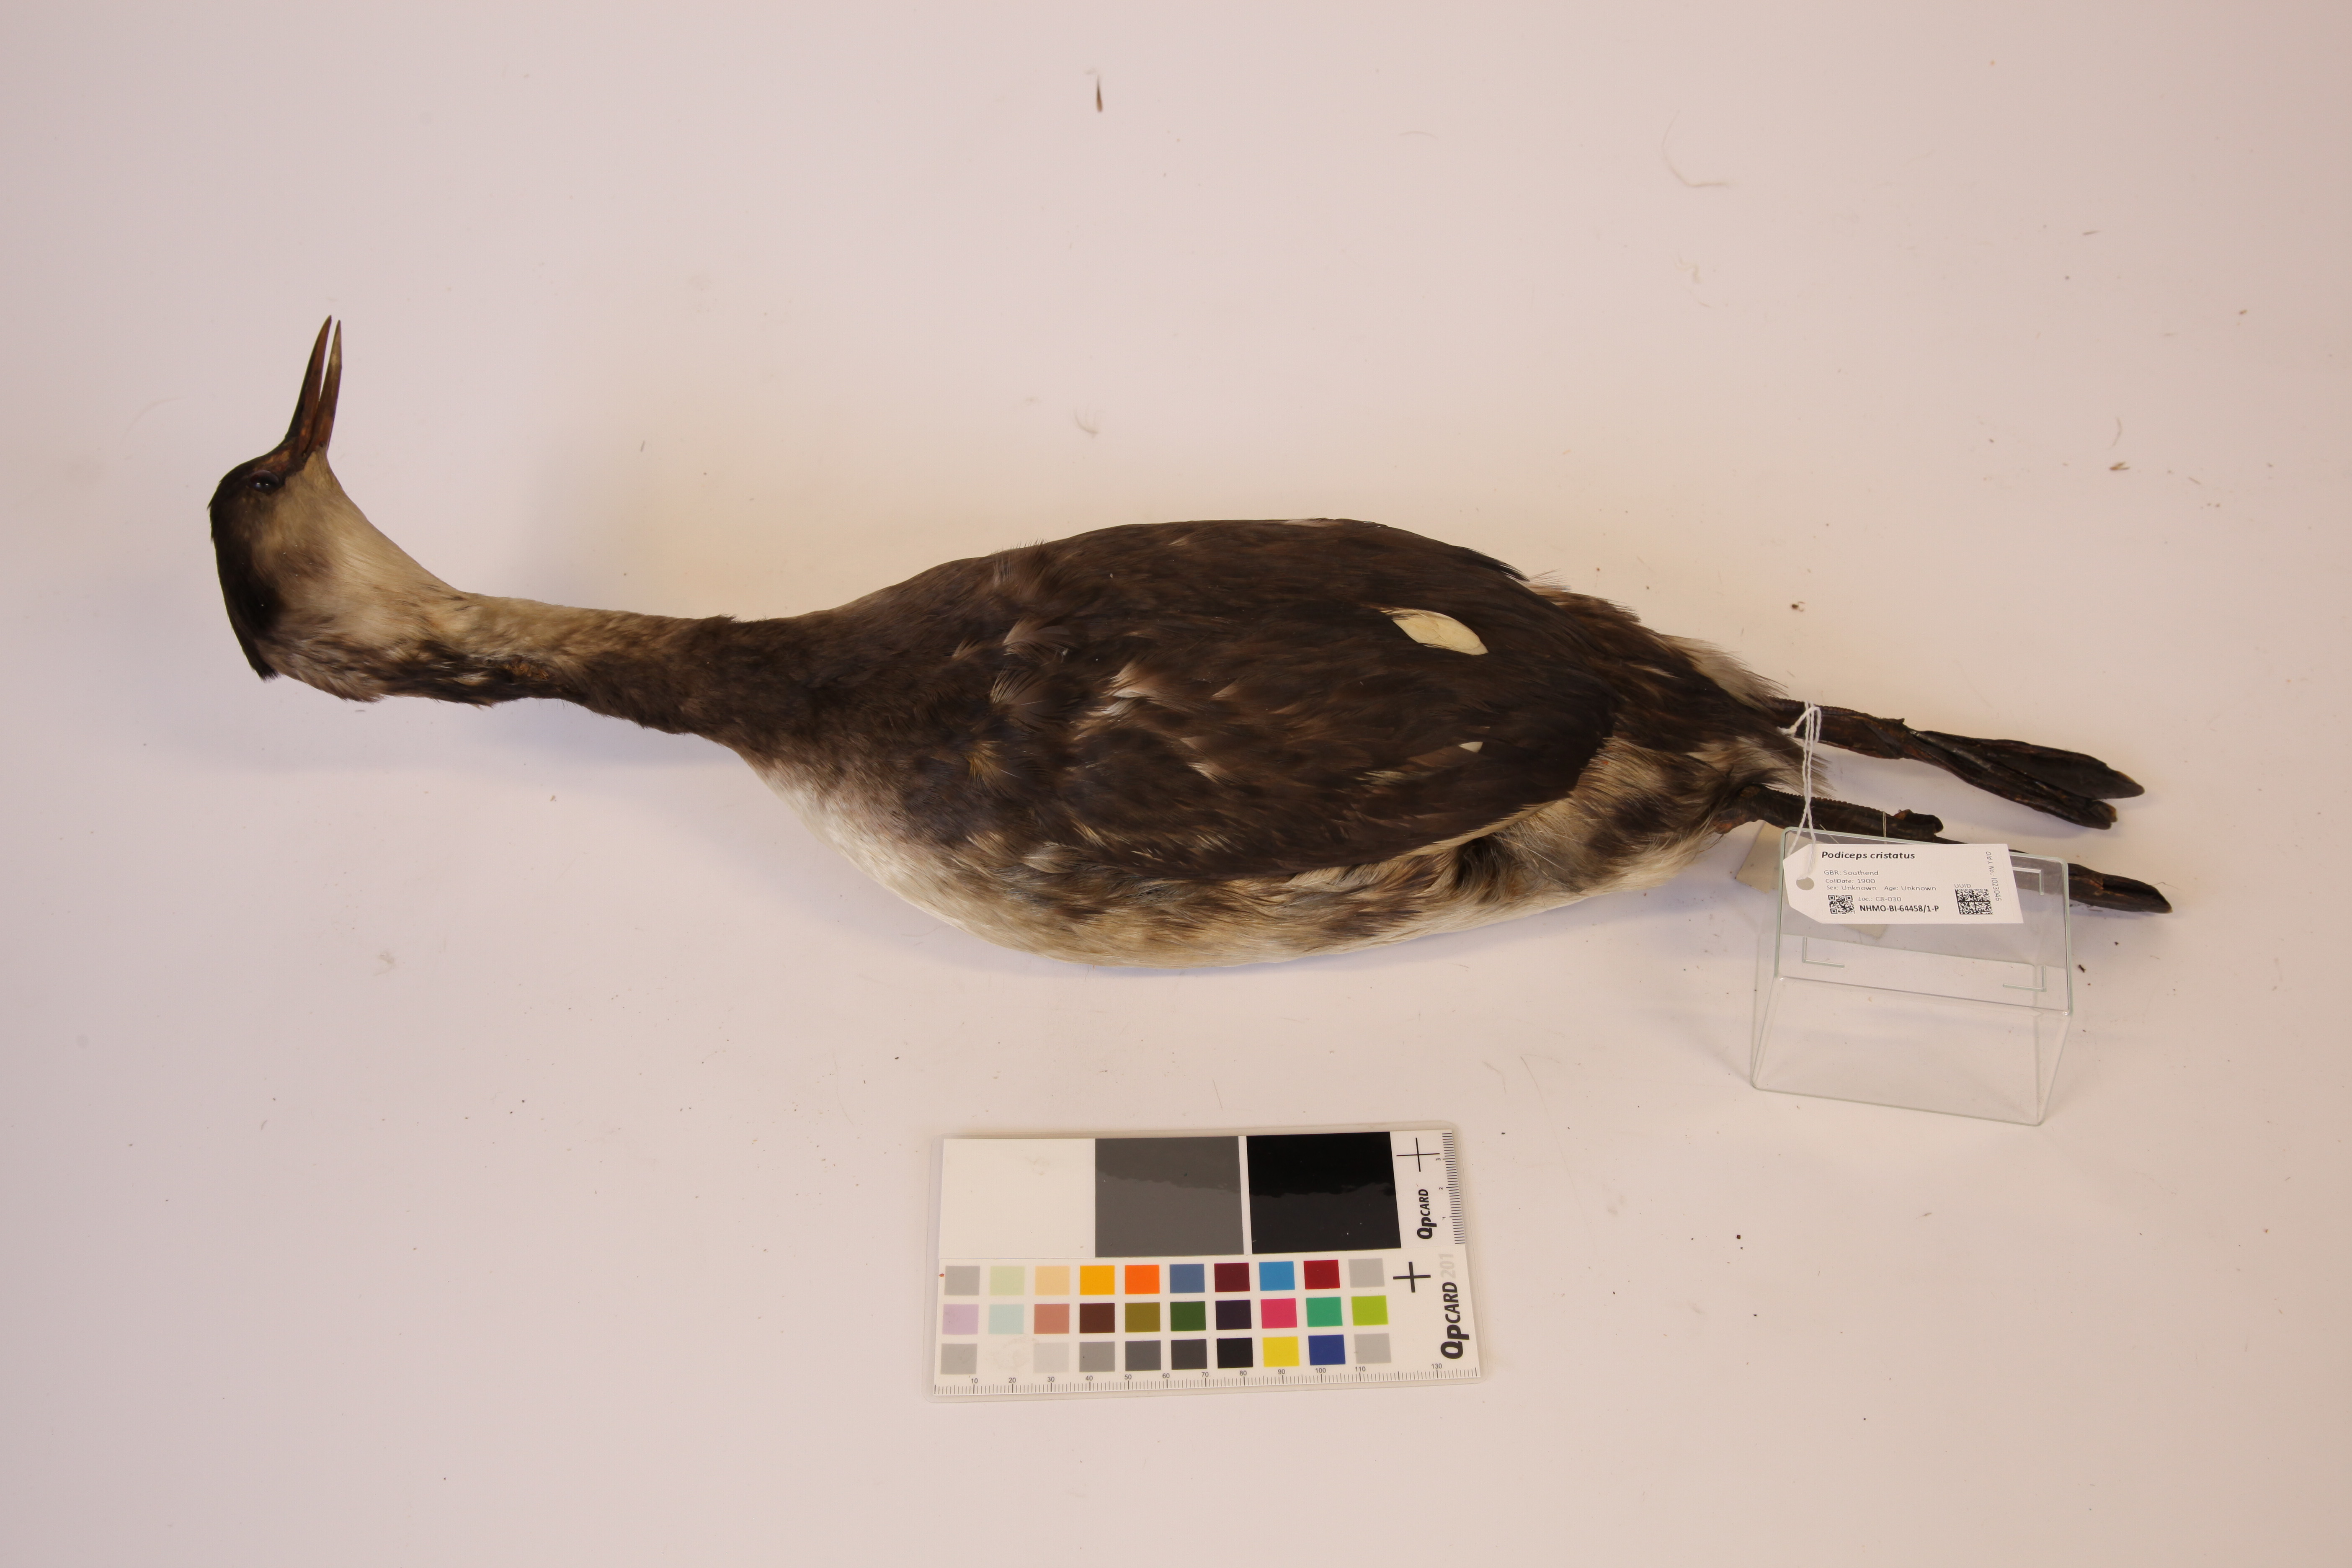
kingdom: Animalia
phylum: Chordata
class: Aves
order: Podicipediformes
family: Podicipedidae
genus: Podiceps
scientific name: Podiceps cristatus
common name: Great crested grebe
